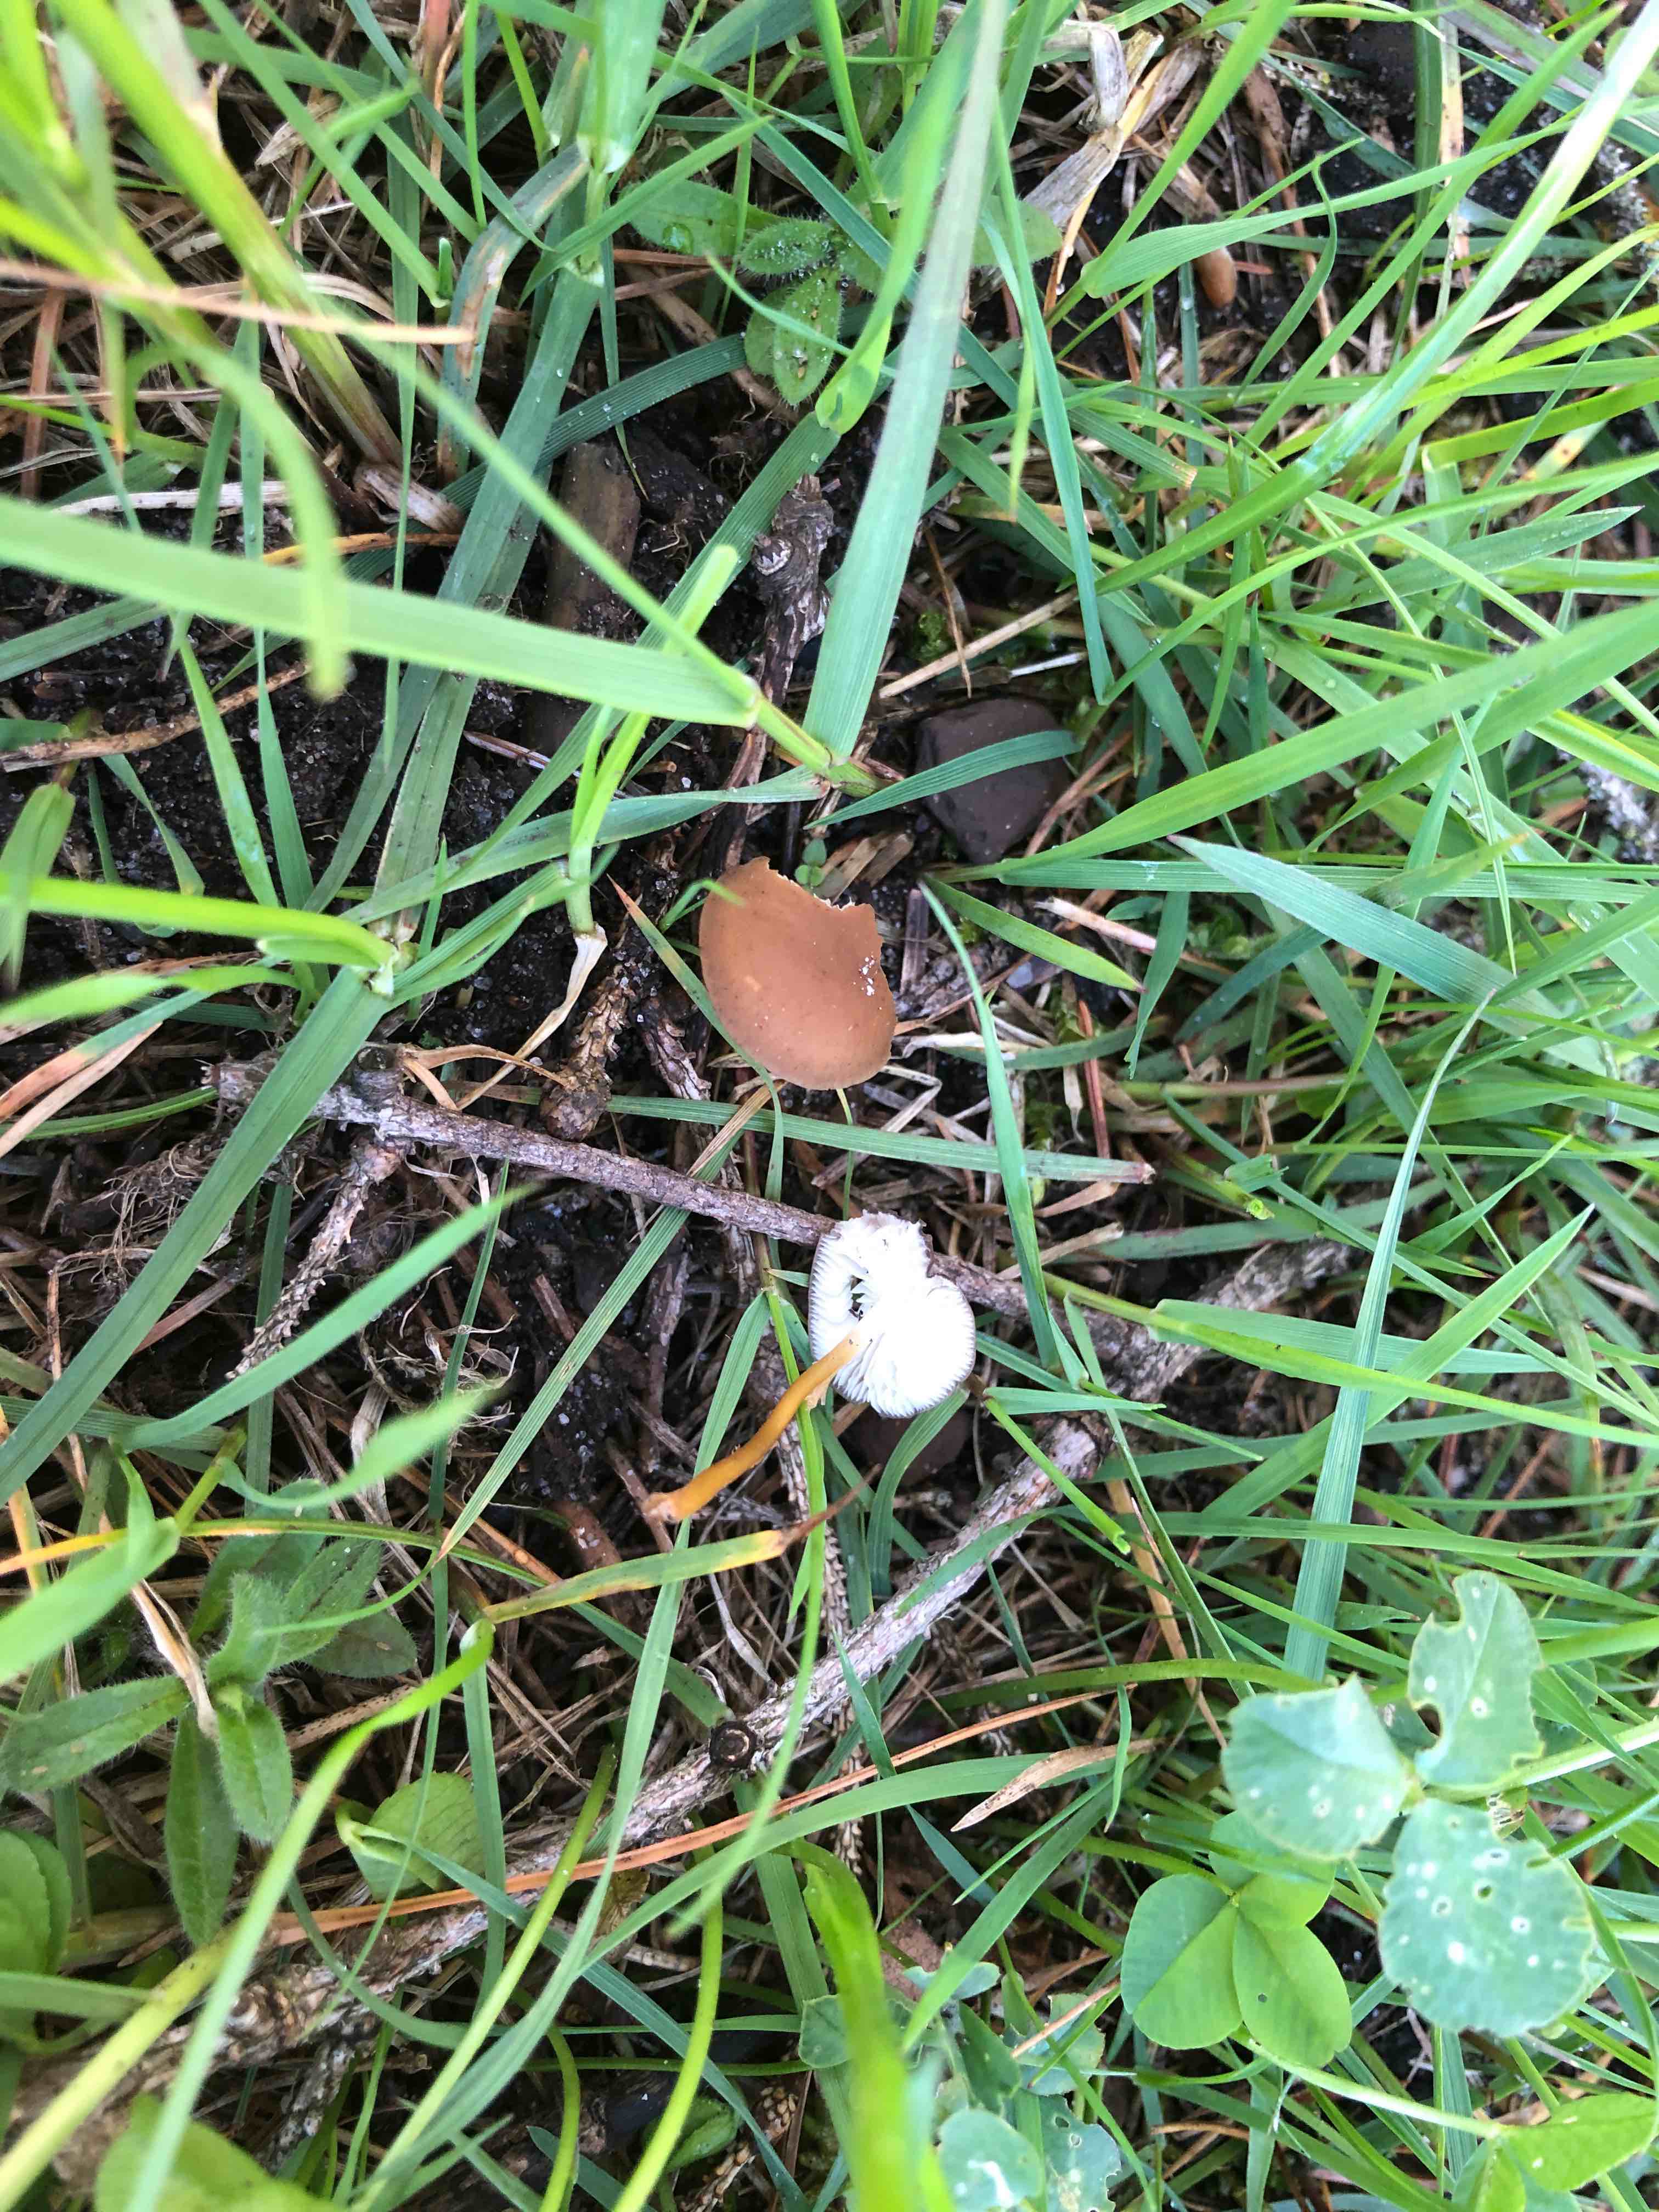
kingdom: Fungi
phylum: Basidiomycota
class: Agaricomycetes
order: Agaricales
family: Physalacriaceae
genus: Strobilurus
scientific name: Strobilurus stephanocystis
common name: fyrre-koglehat
